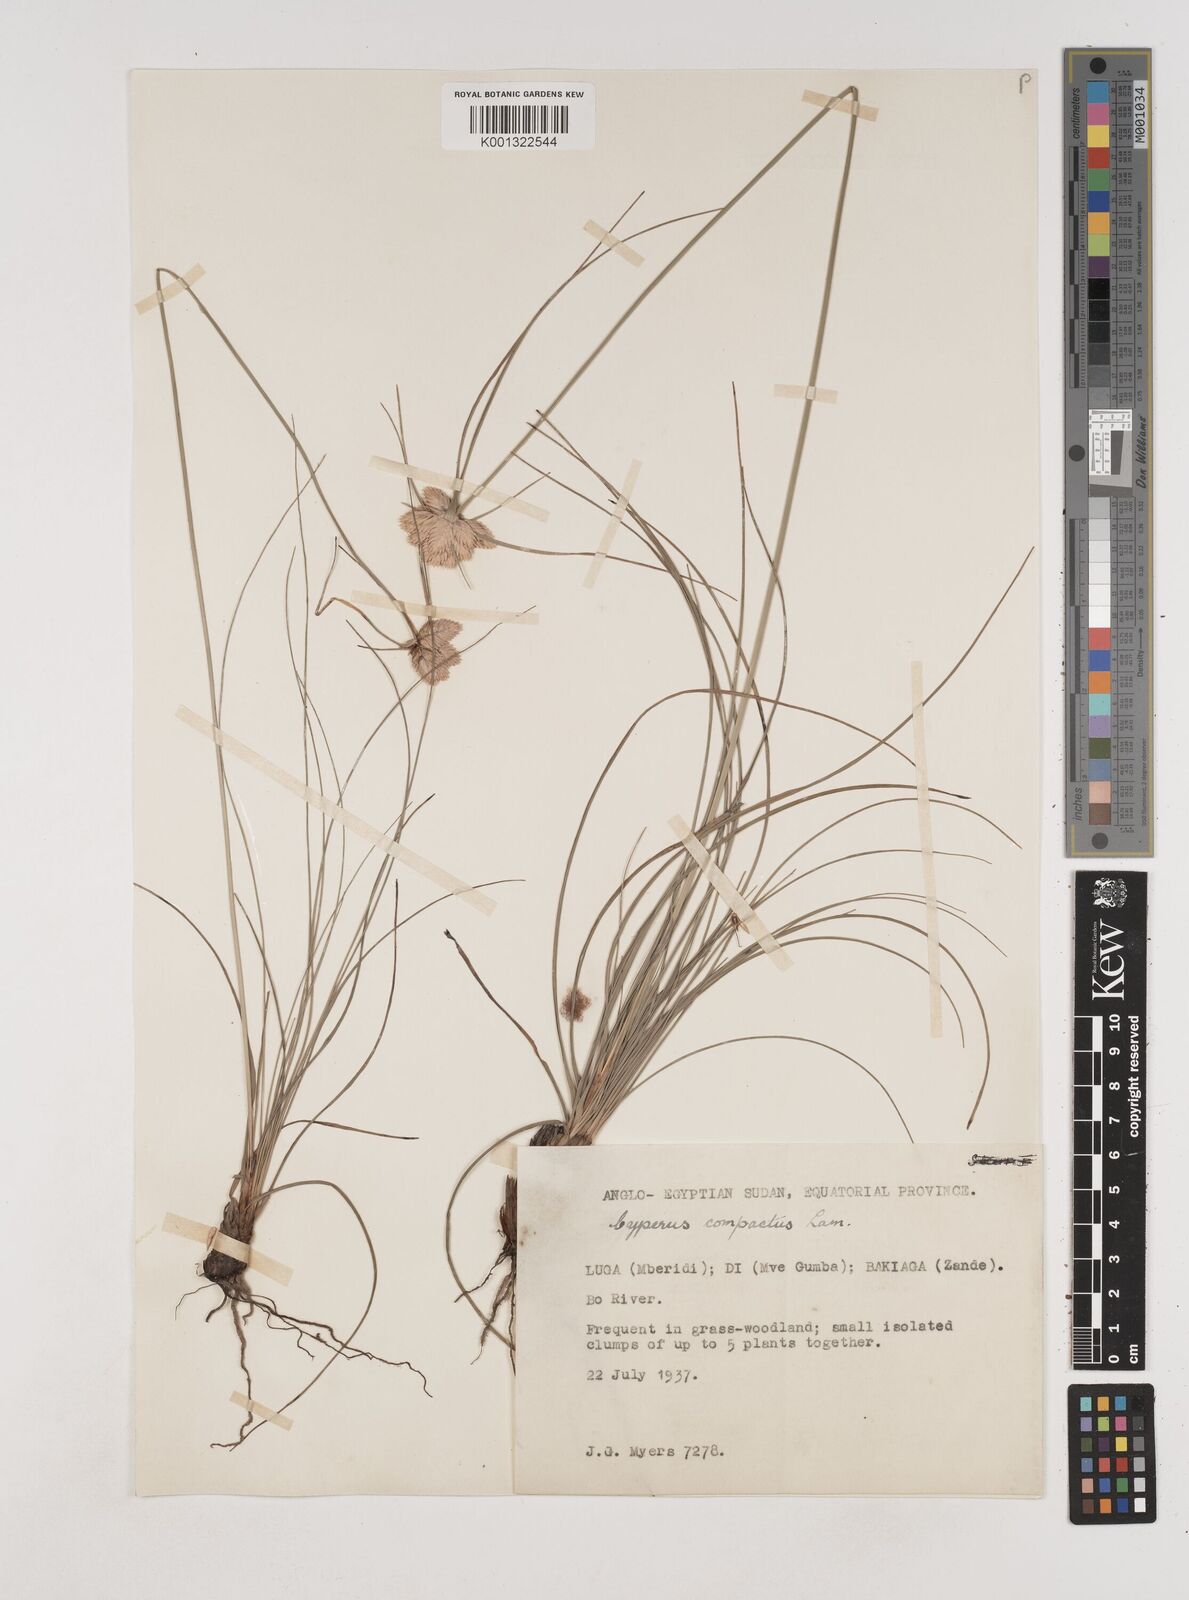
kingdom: Plantae
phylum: Tracheophyta
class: Liliopsida
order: Poales
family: Cyperaceae
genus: Cyperus
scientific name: Cyperus niveus
